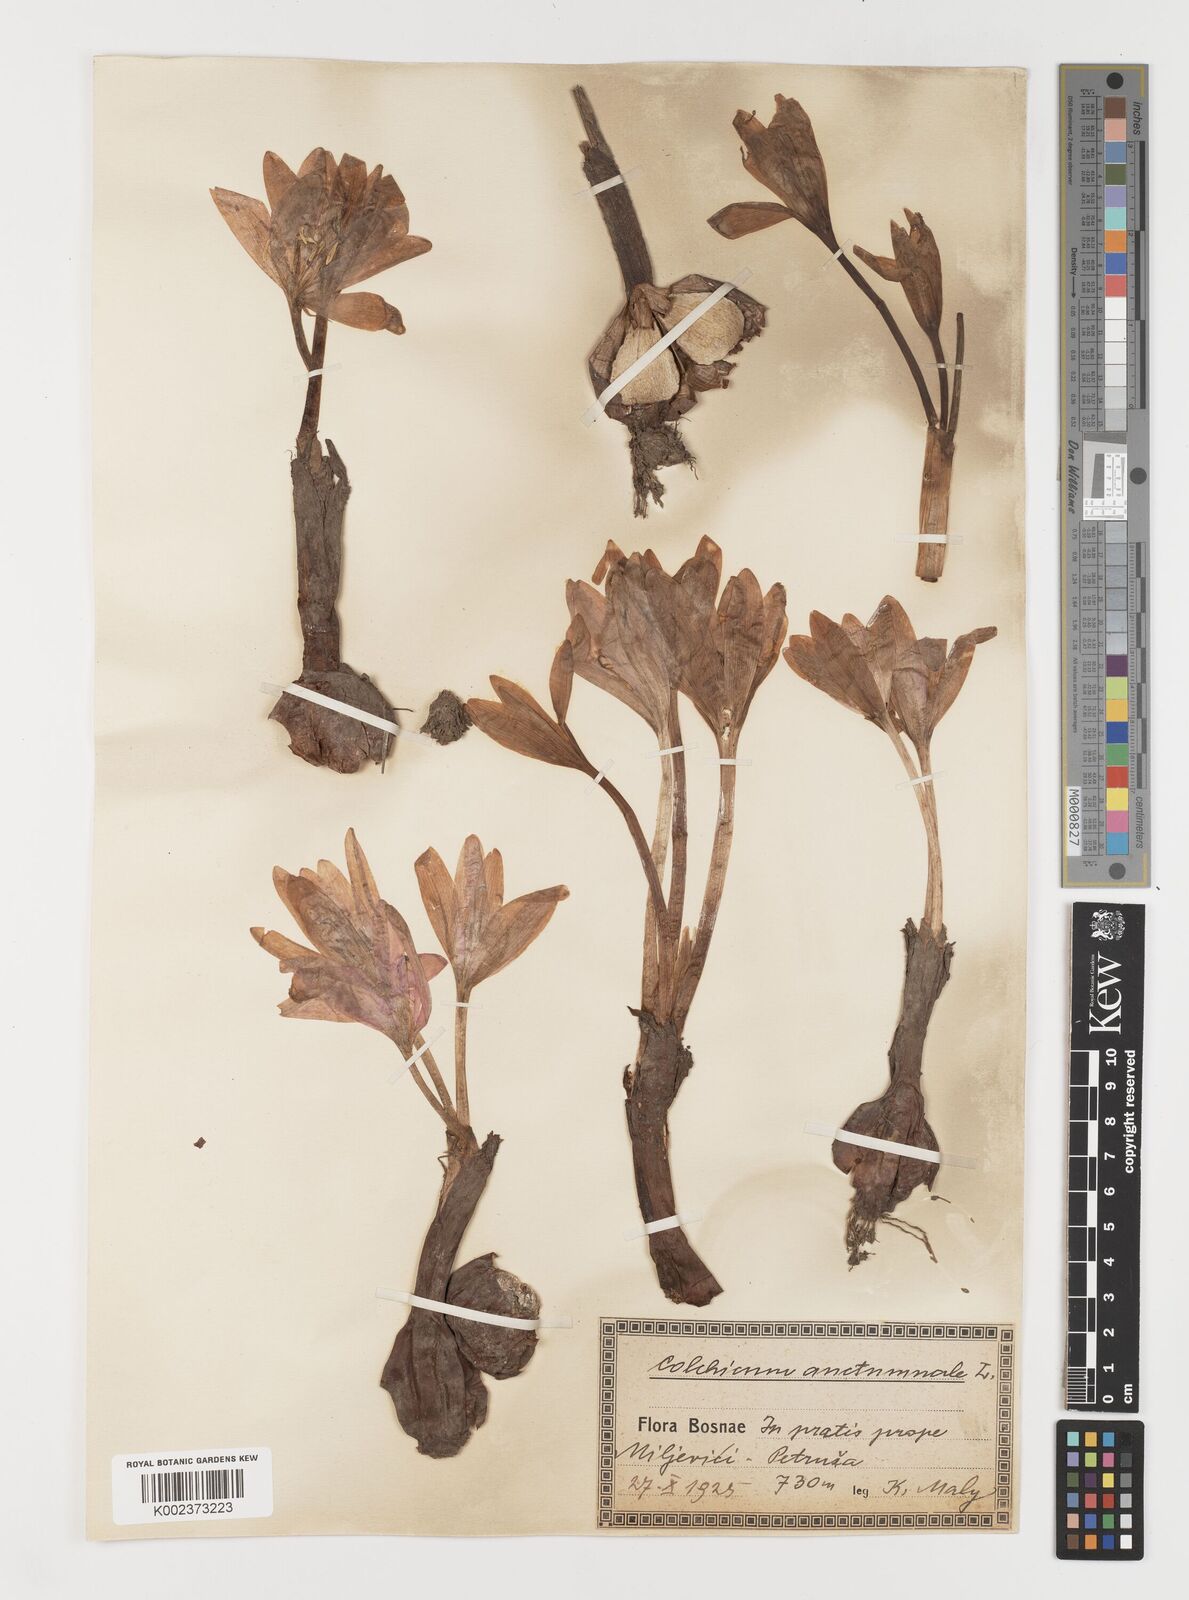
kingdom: Plantae
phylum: Tracheophyta
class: Liliopsida
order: Liliales
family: Colchicaceae
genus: Colchicum
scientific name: Colchicum autumnale
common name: Autumn crocus
